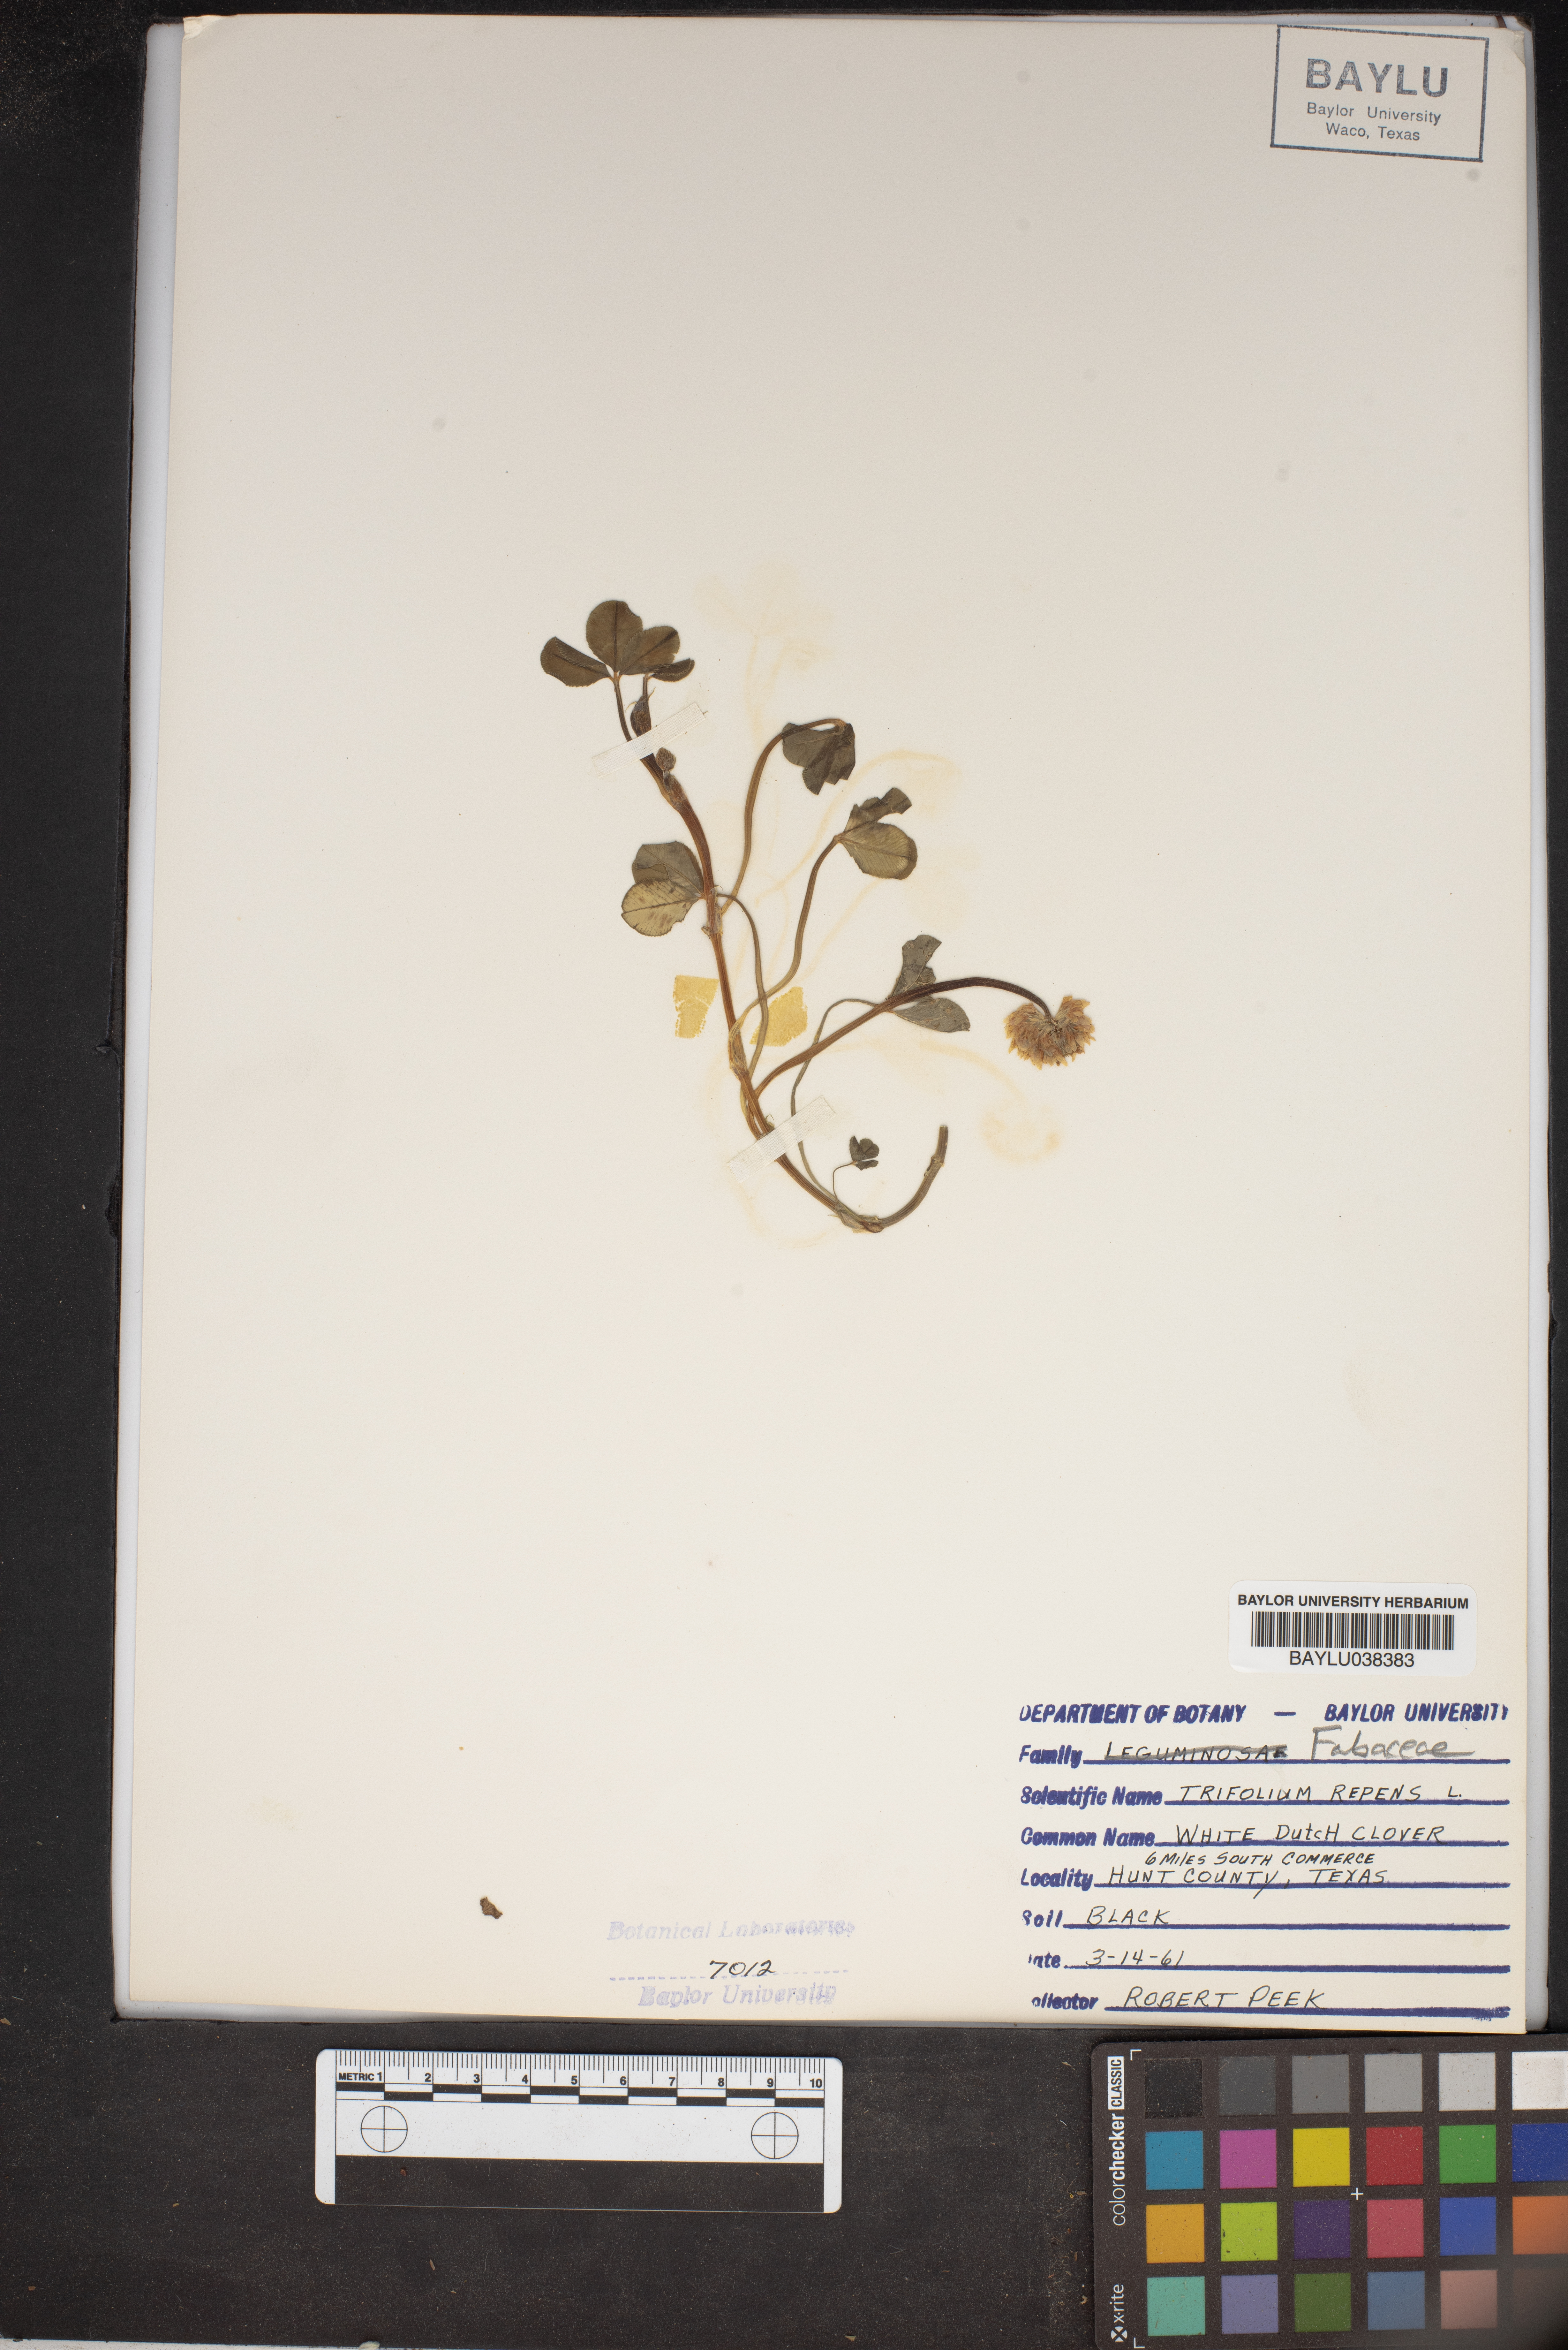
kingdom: Plantae
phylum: Tracheophyta
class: Magnoliopsida
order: Fabales
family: Fabaceae
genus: Trifolium
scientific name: Trifolium repens
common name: White clover
